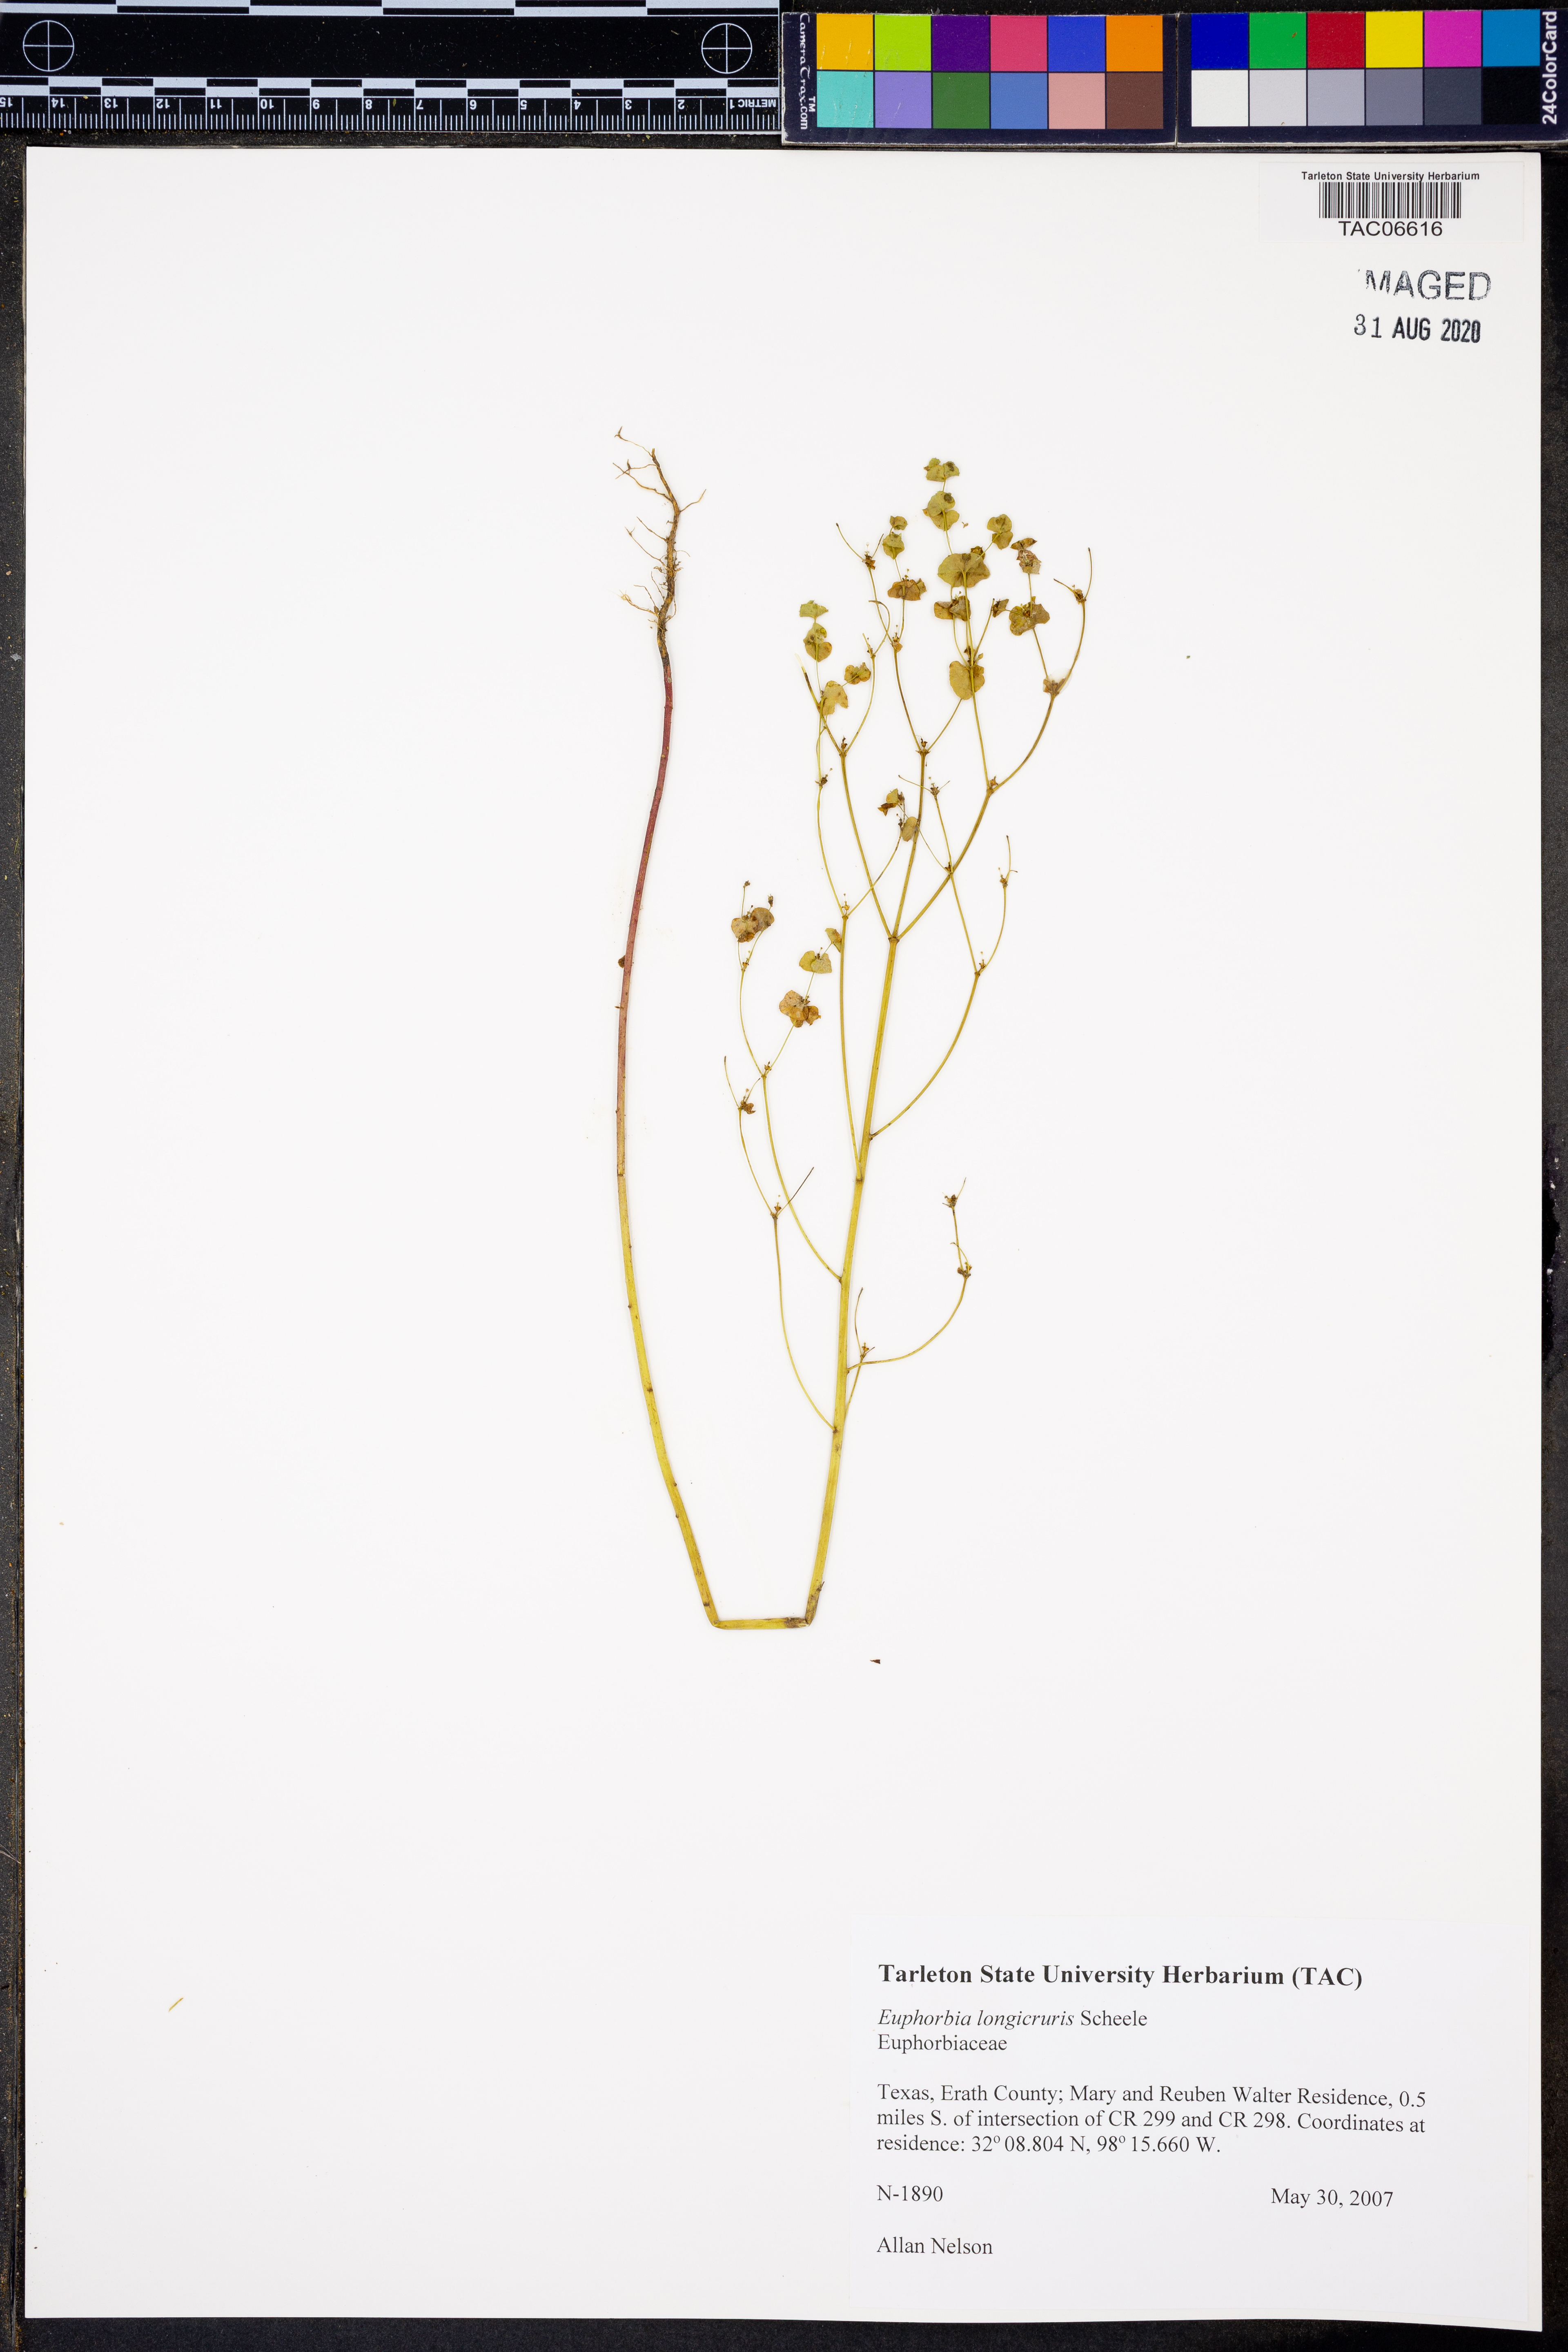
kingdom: Plantae
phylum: Tracheophyta
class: Magnoliopsida
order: Malpighiales
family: Euphorbiaceae
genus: Euphorbia
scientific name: Euphorbia longicruris
